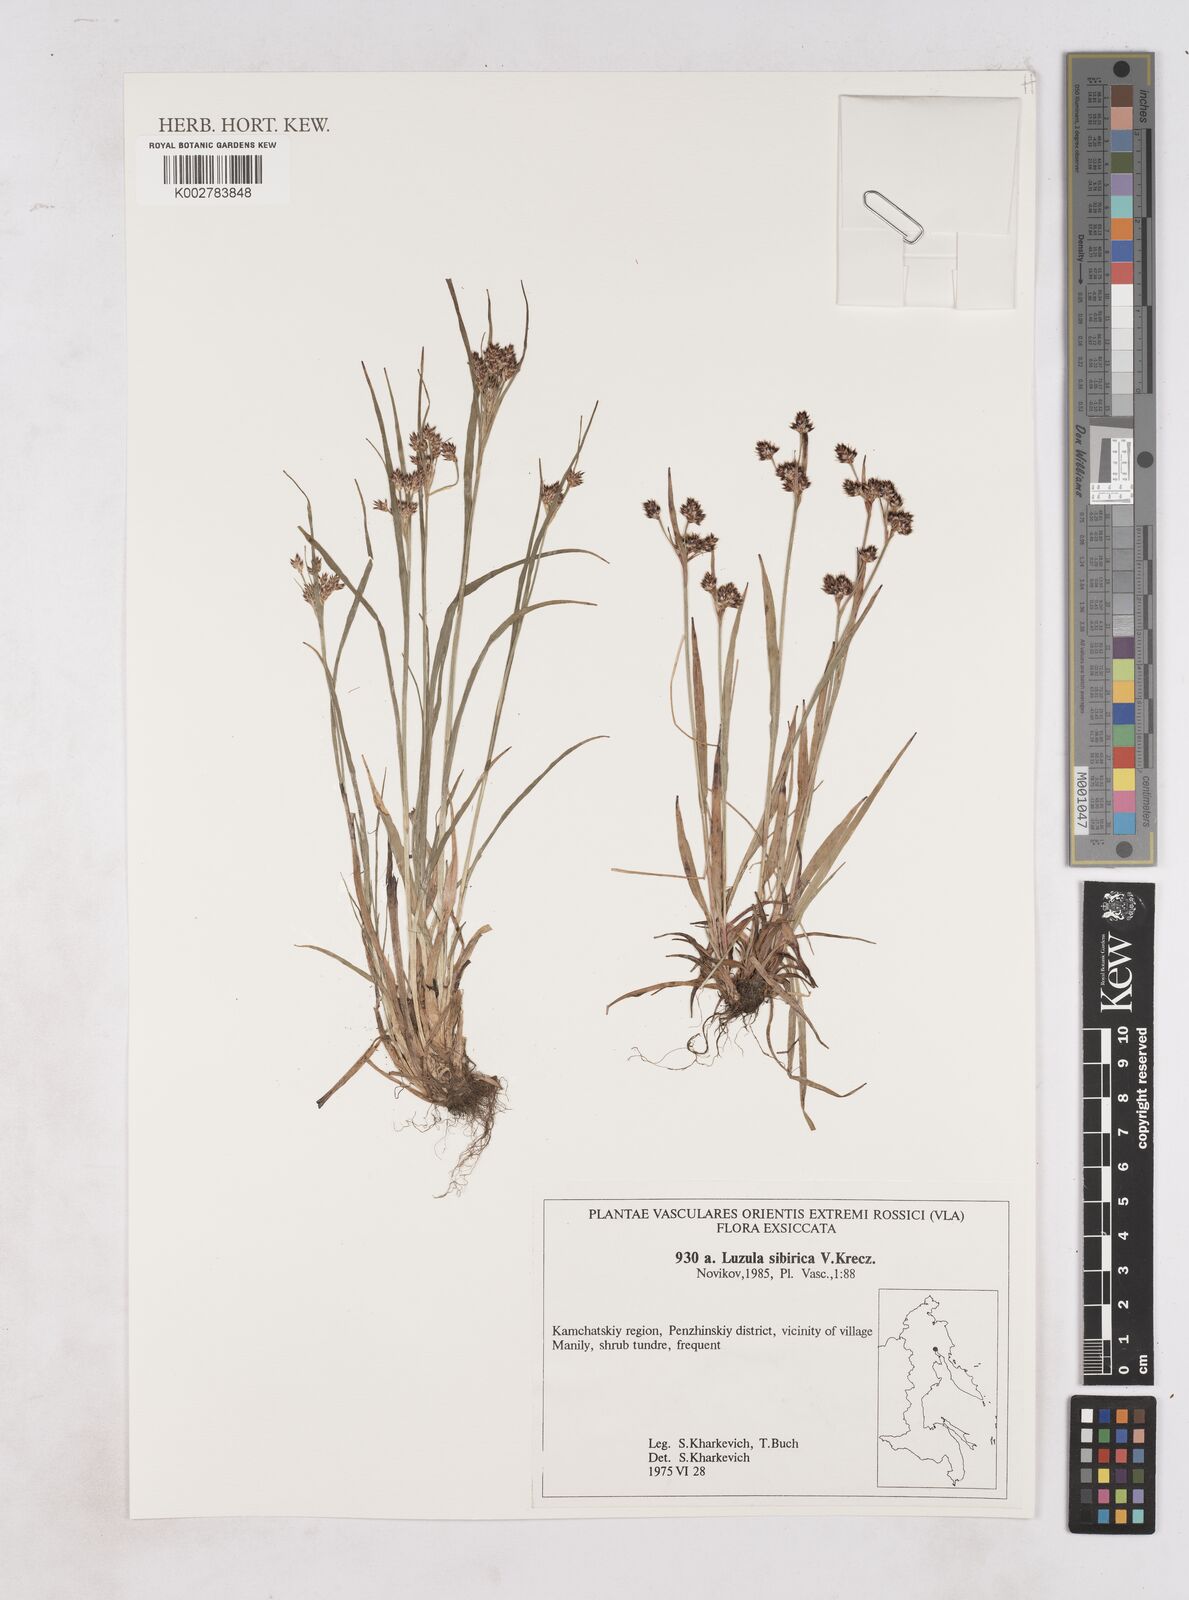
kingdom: Plantae
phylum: Tracheophyta
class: Liliopsida
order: Poales
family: Juncaceae
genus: Luzula
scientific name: Luzula multiflora
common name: Heath wood-rush
